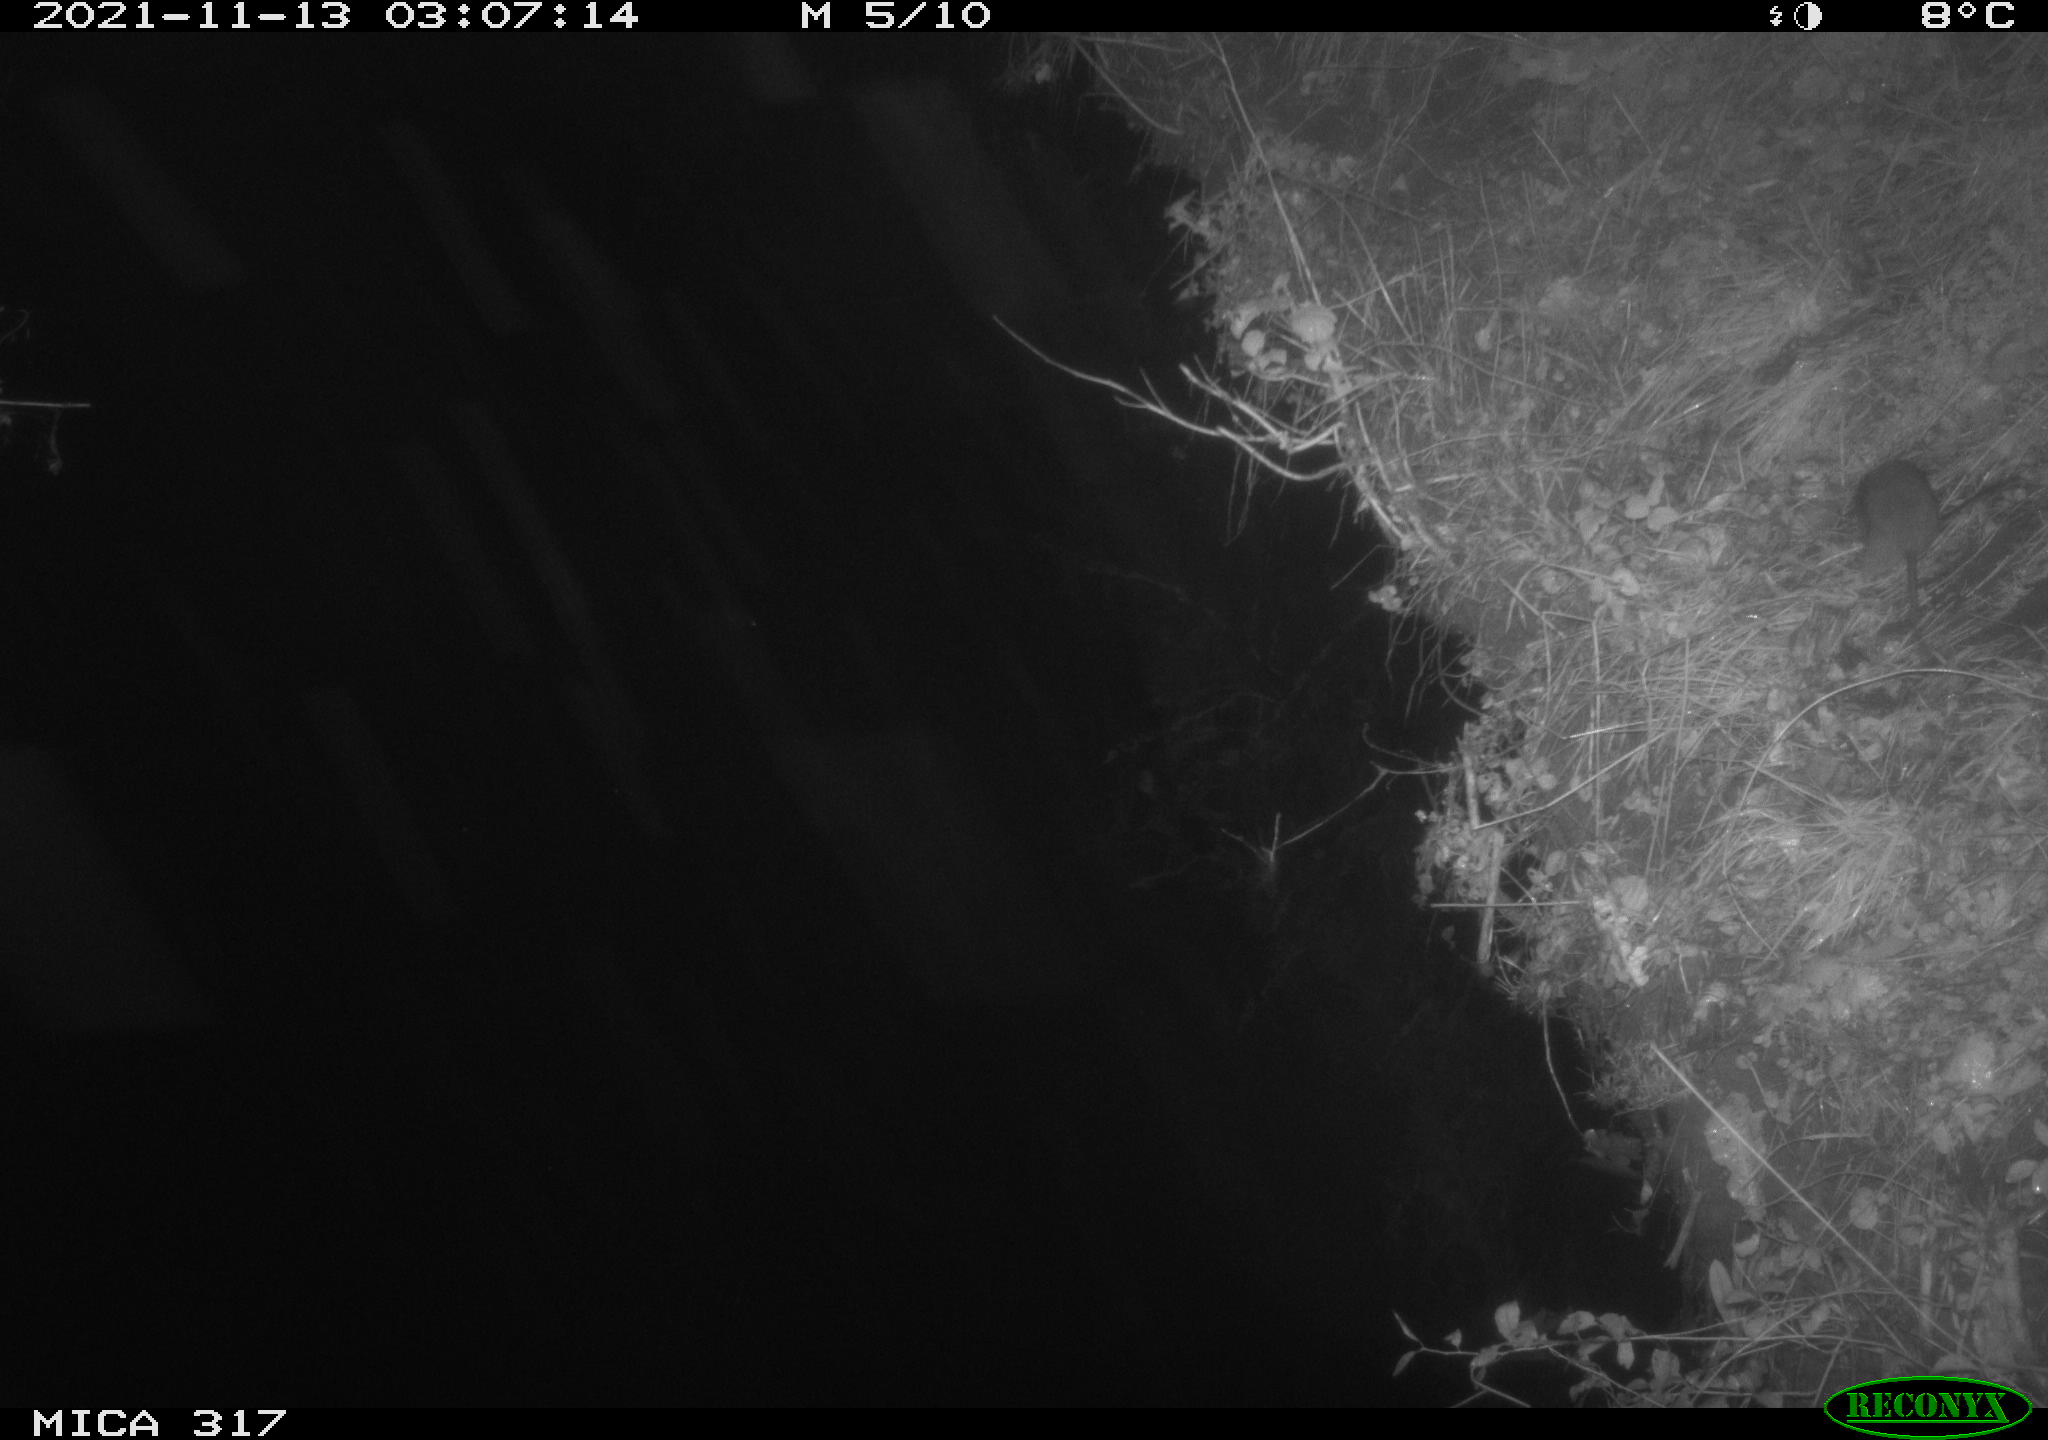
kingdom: Animalia
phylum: Chordata
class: Mammalia
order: Rodentia
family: Muridae
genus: Rattus
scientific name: Rattus norvegicus
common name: Brown rat
